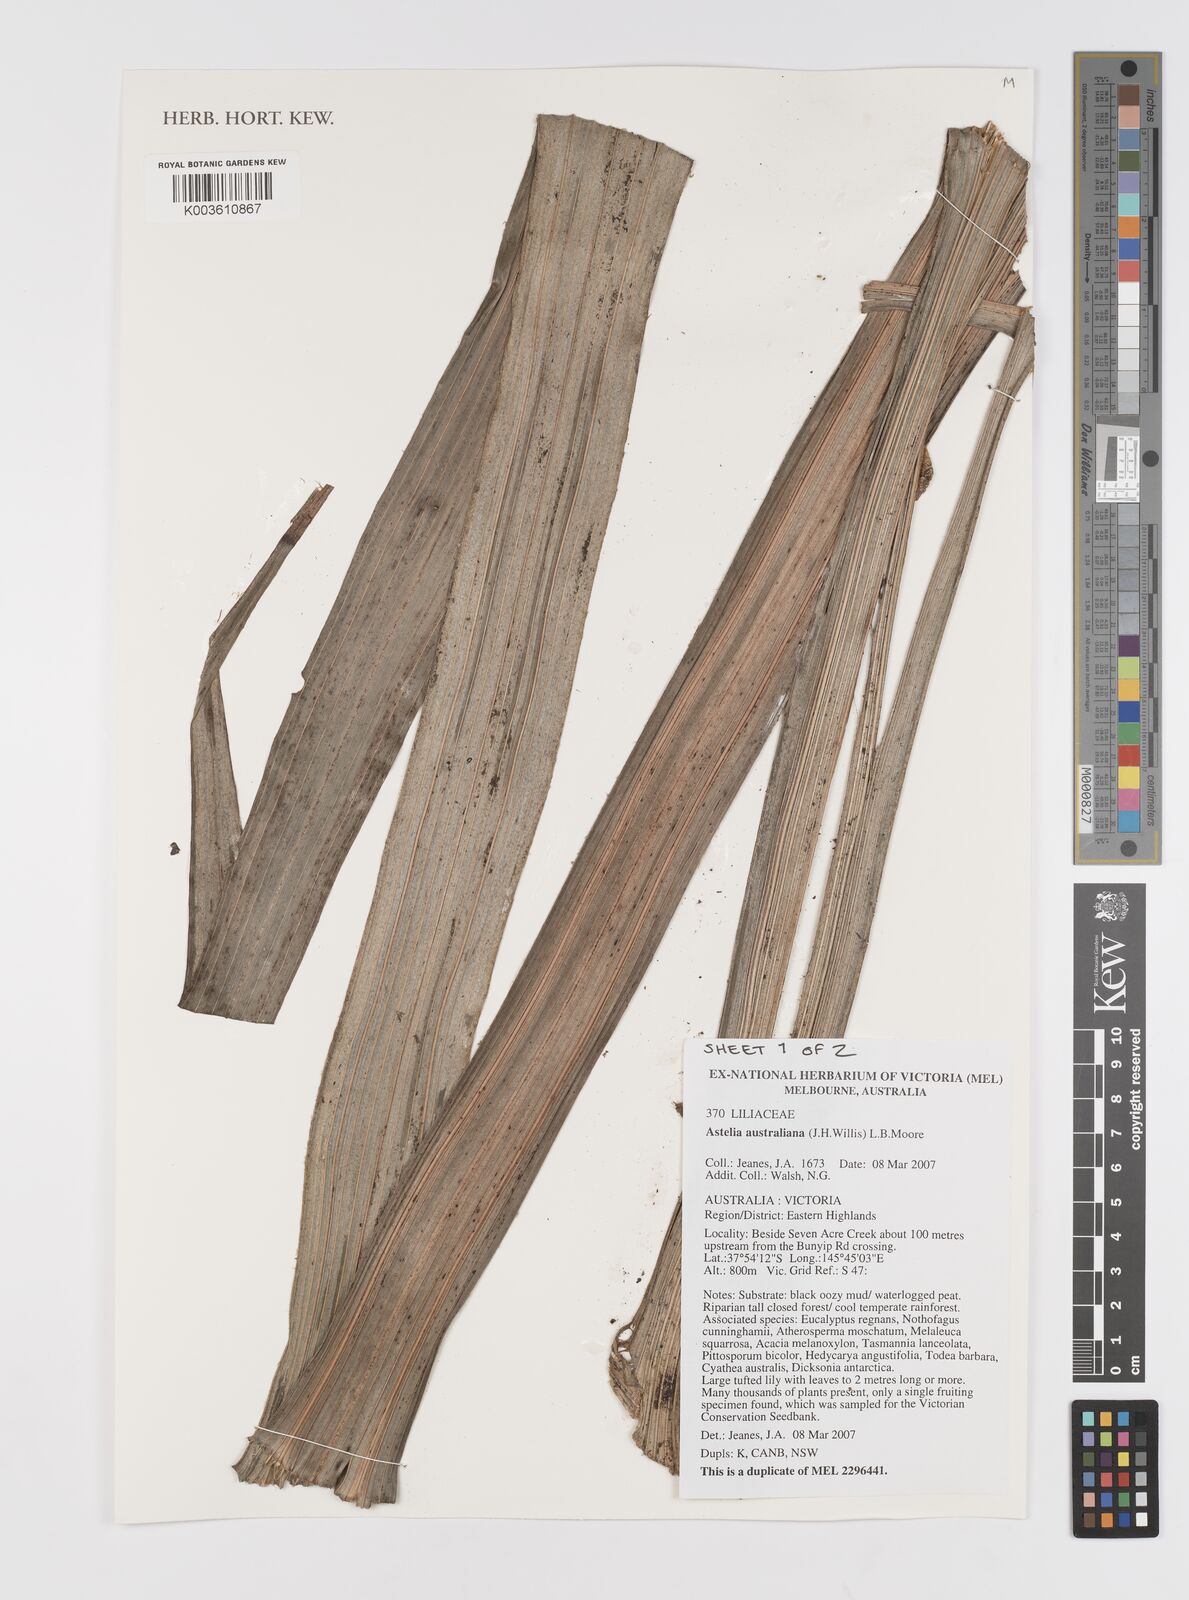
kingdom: Plantae
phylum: Tracheophyta
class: Liliopsida
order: Asparagales
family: Asteliaceae
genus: Astelia
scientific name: Astelia australiana
